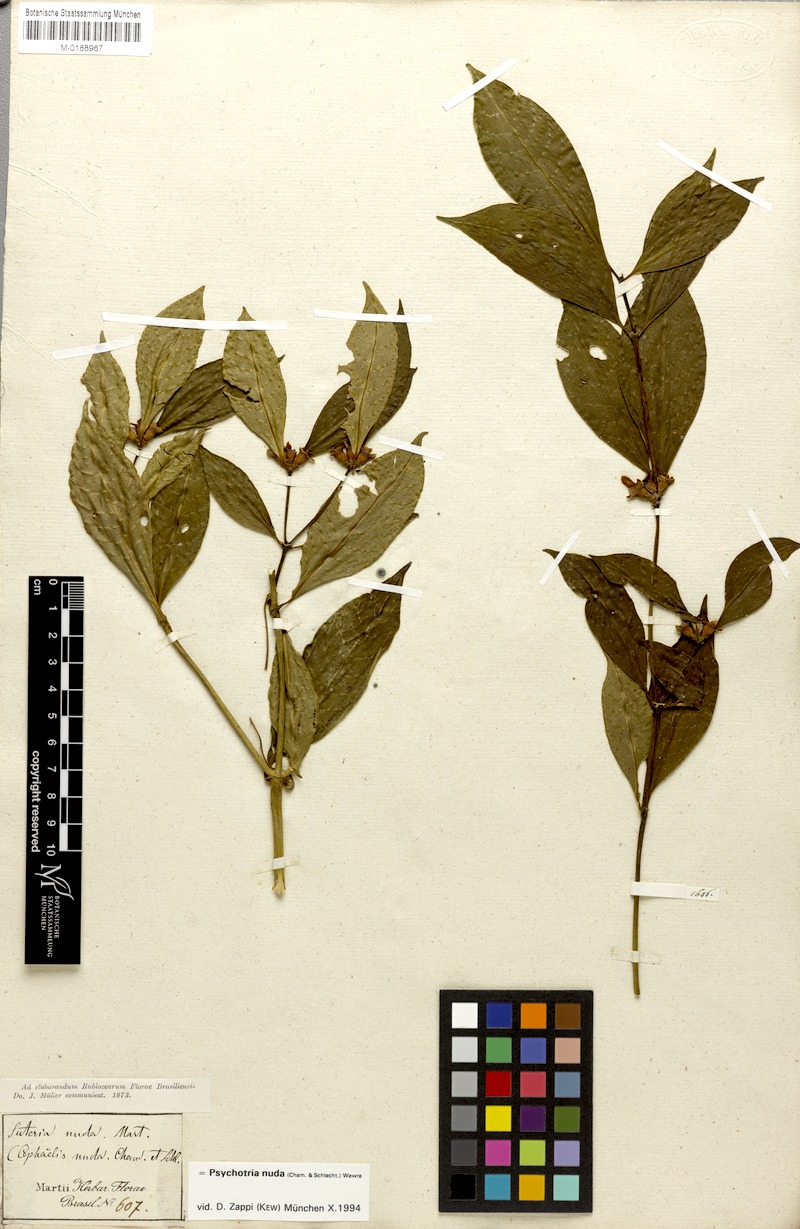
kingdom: Plantae
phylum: Tracheophyta
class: Magnoliopsida
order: Gentianales
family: Rubiaceae
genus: Psychotria
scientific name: Psychotria nuda
